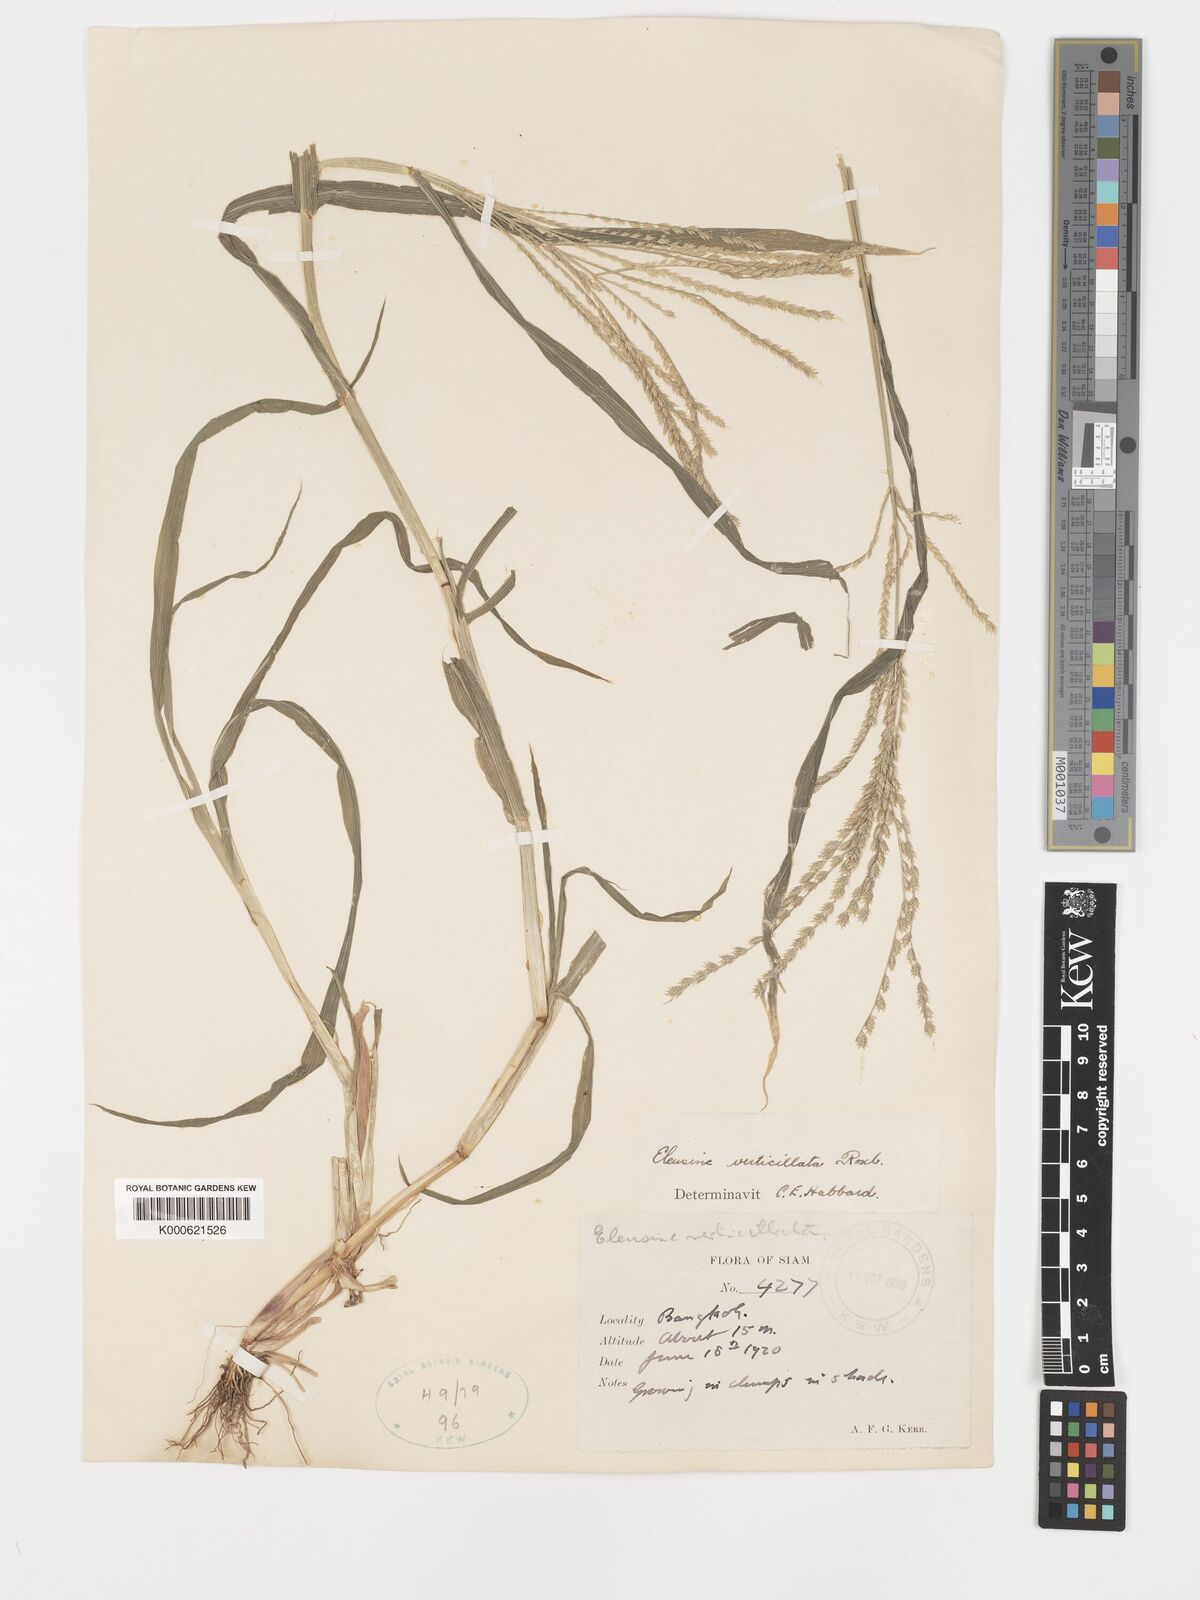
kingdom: Plantae
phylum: Tracheophyta
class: Liliopsida
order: Poales
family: Poaceae
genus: Acrachne
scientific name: Acrachne racemosa
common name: Goosegrass
